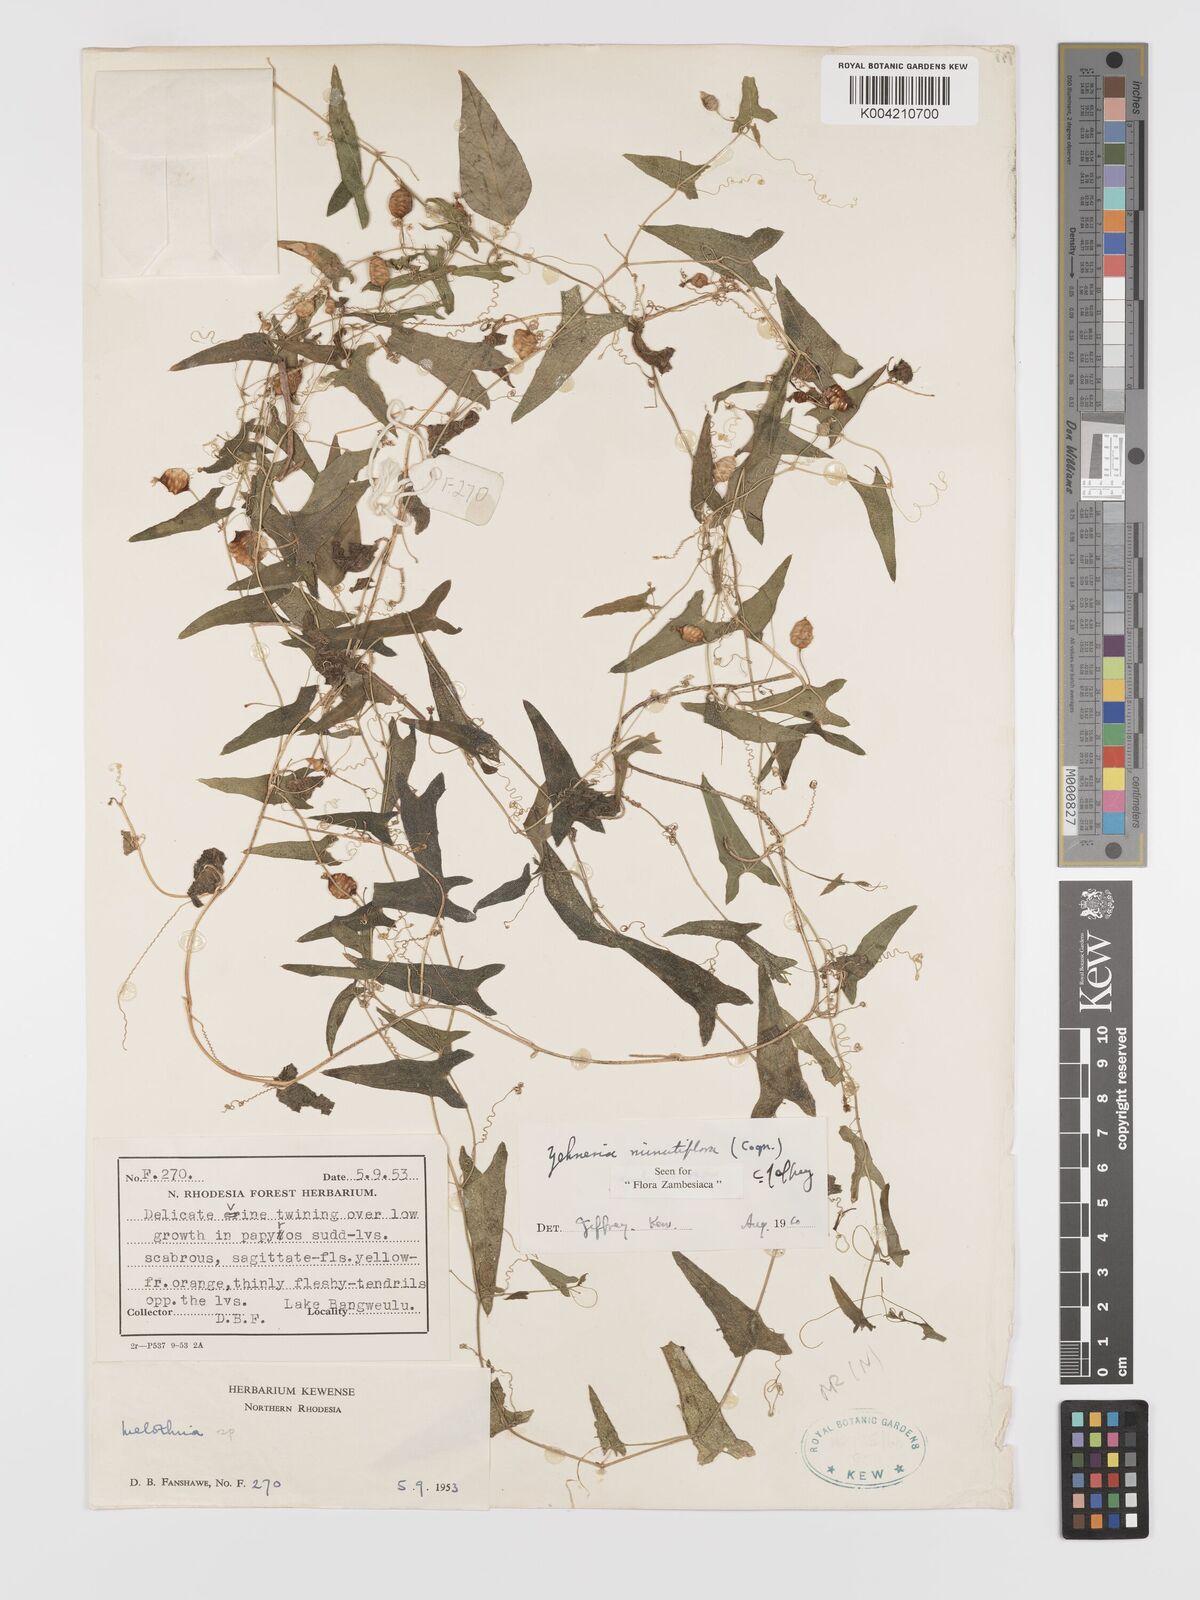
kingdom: Plantae
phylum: Tracheophyta
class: Magnoliopsida
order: Cucurbitales
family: Cucurbitaceae
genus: Zehneria
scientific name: Zehneria minutiflora
